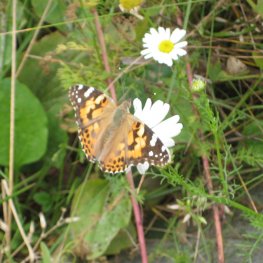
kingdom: Animalia
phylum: Arthropoda
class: Insecta
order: Lepidoptera
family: Nymphalidae
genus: Vanessa
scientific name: Vanessa cardui
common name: Painted Lady
